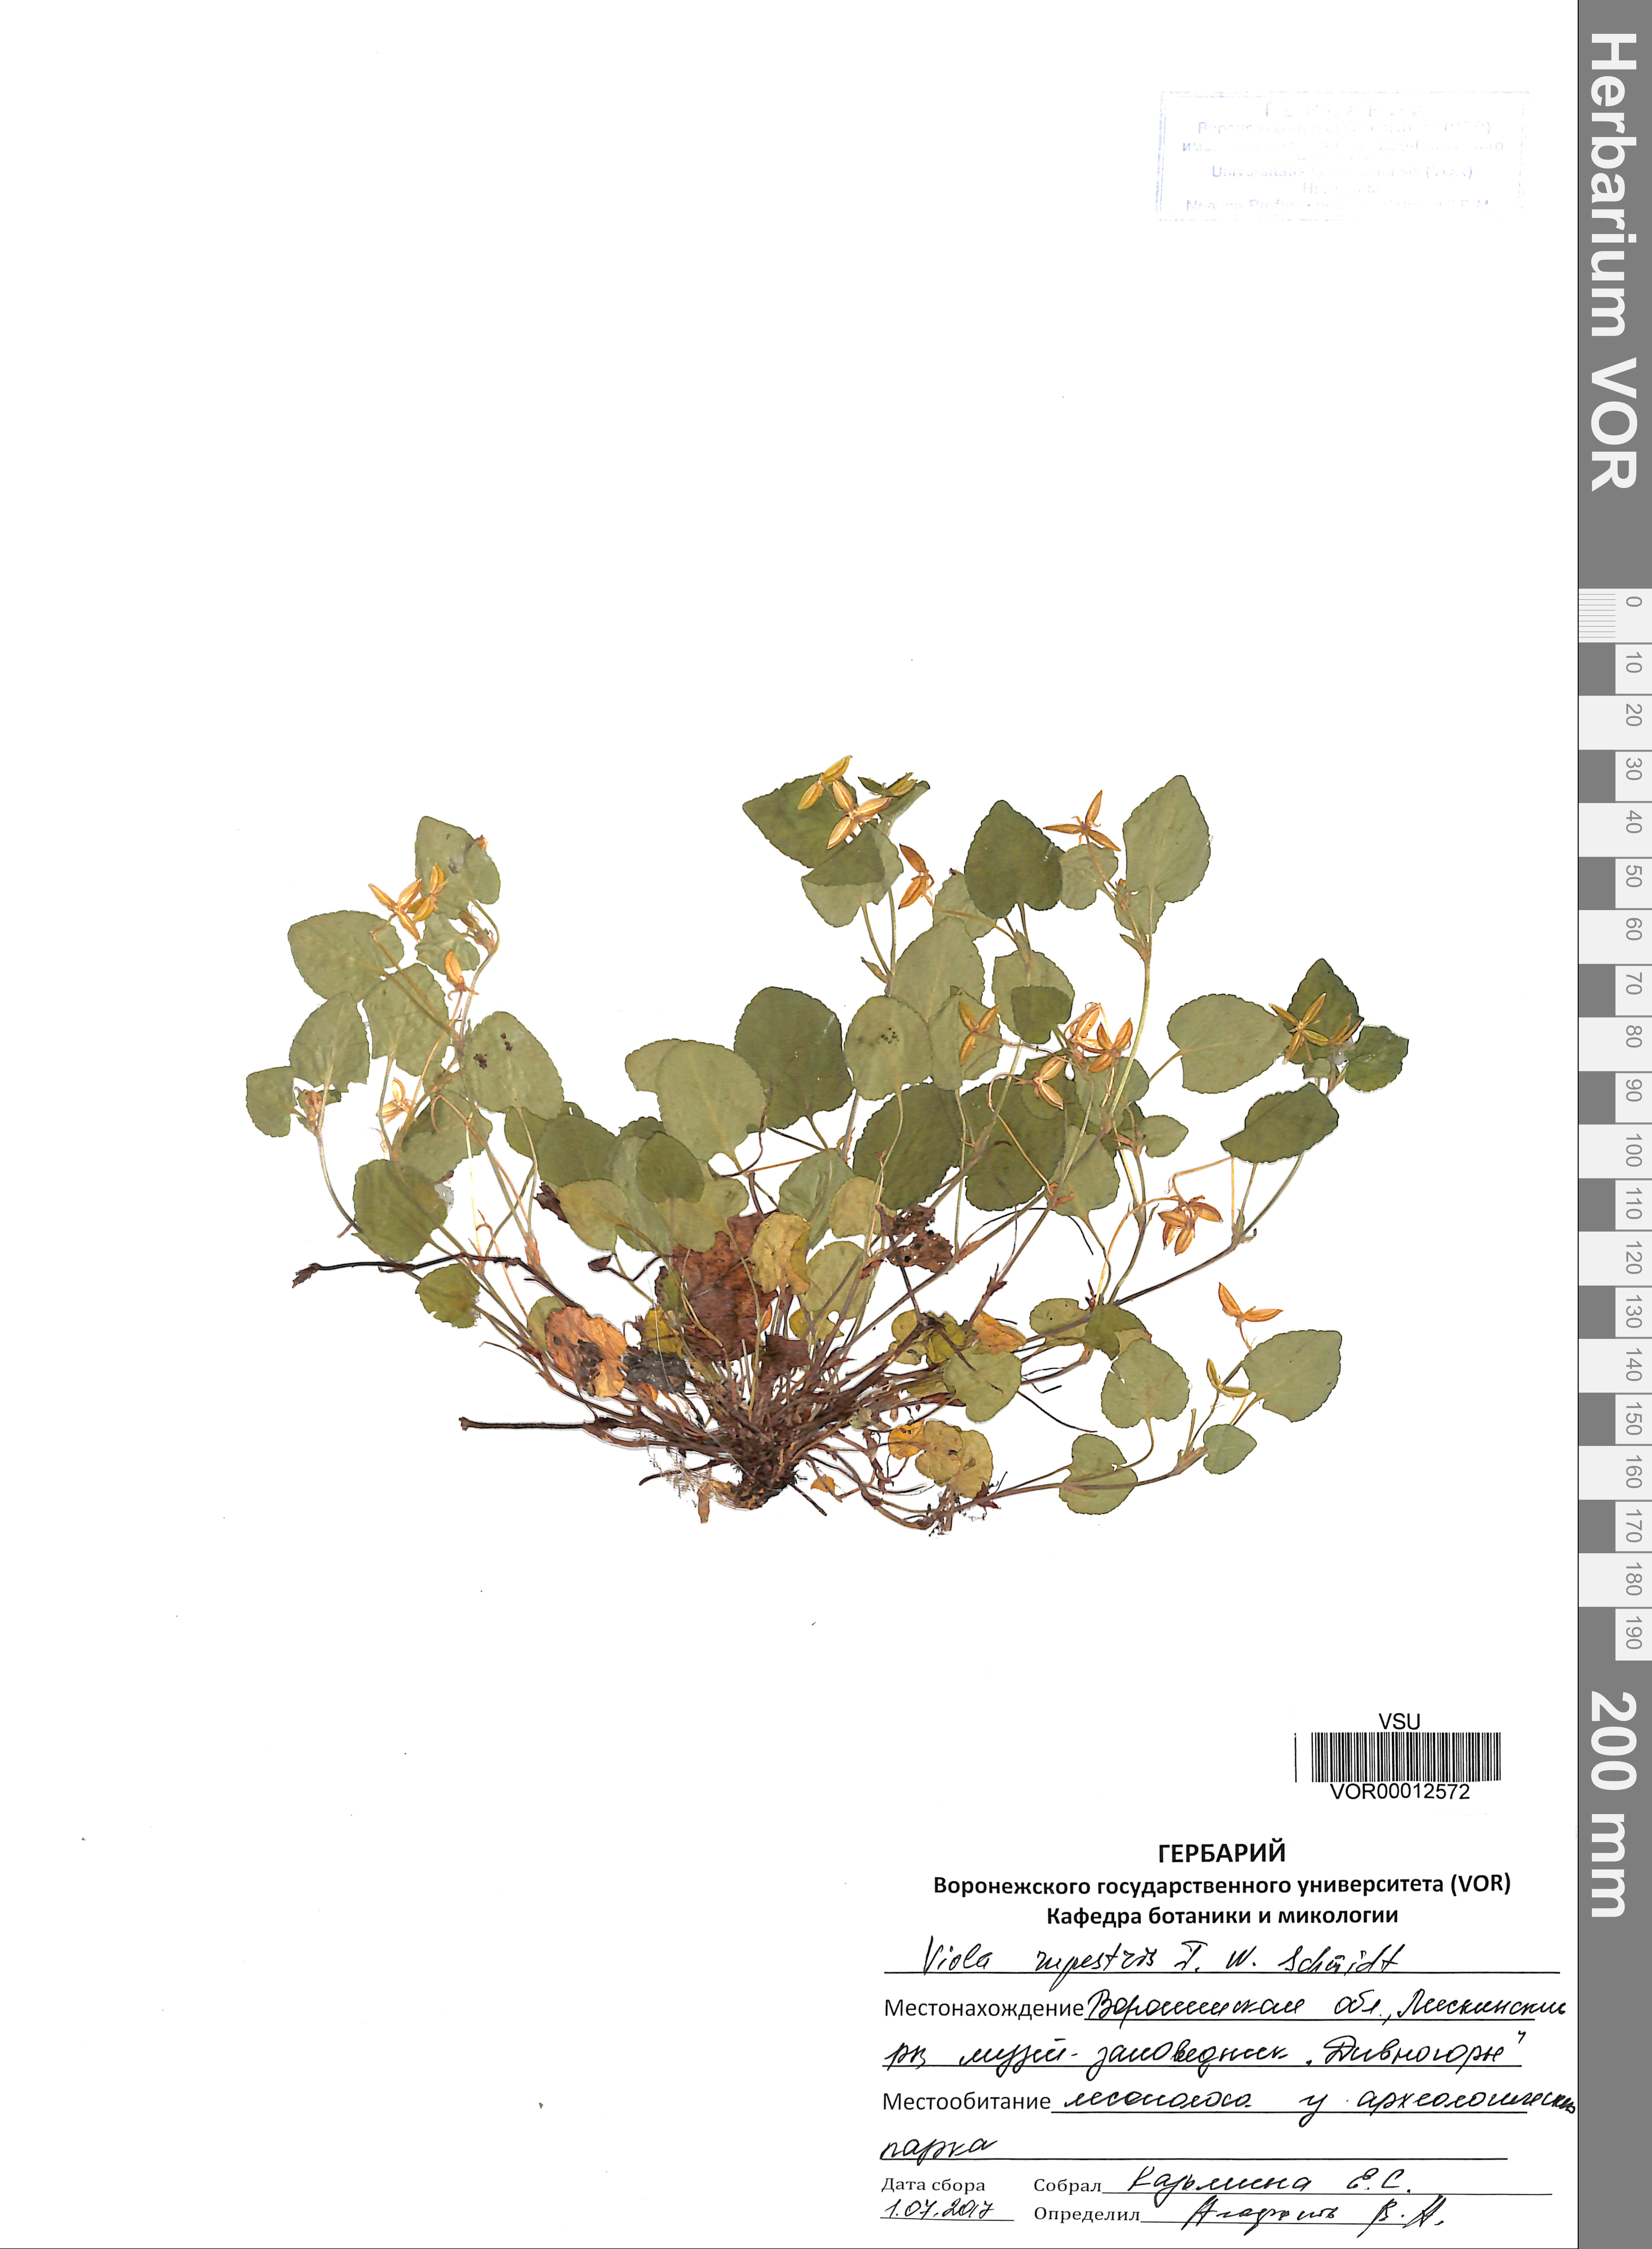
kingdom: Plantae
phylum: Tracheophyta
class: Magnoliopsida
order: Malpighiales
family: Violaceae
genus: Viola
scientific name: Viola rupestris
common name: Teesdale violet
